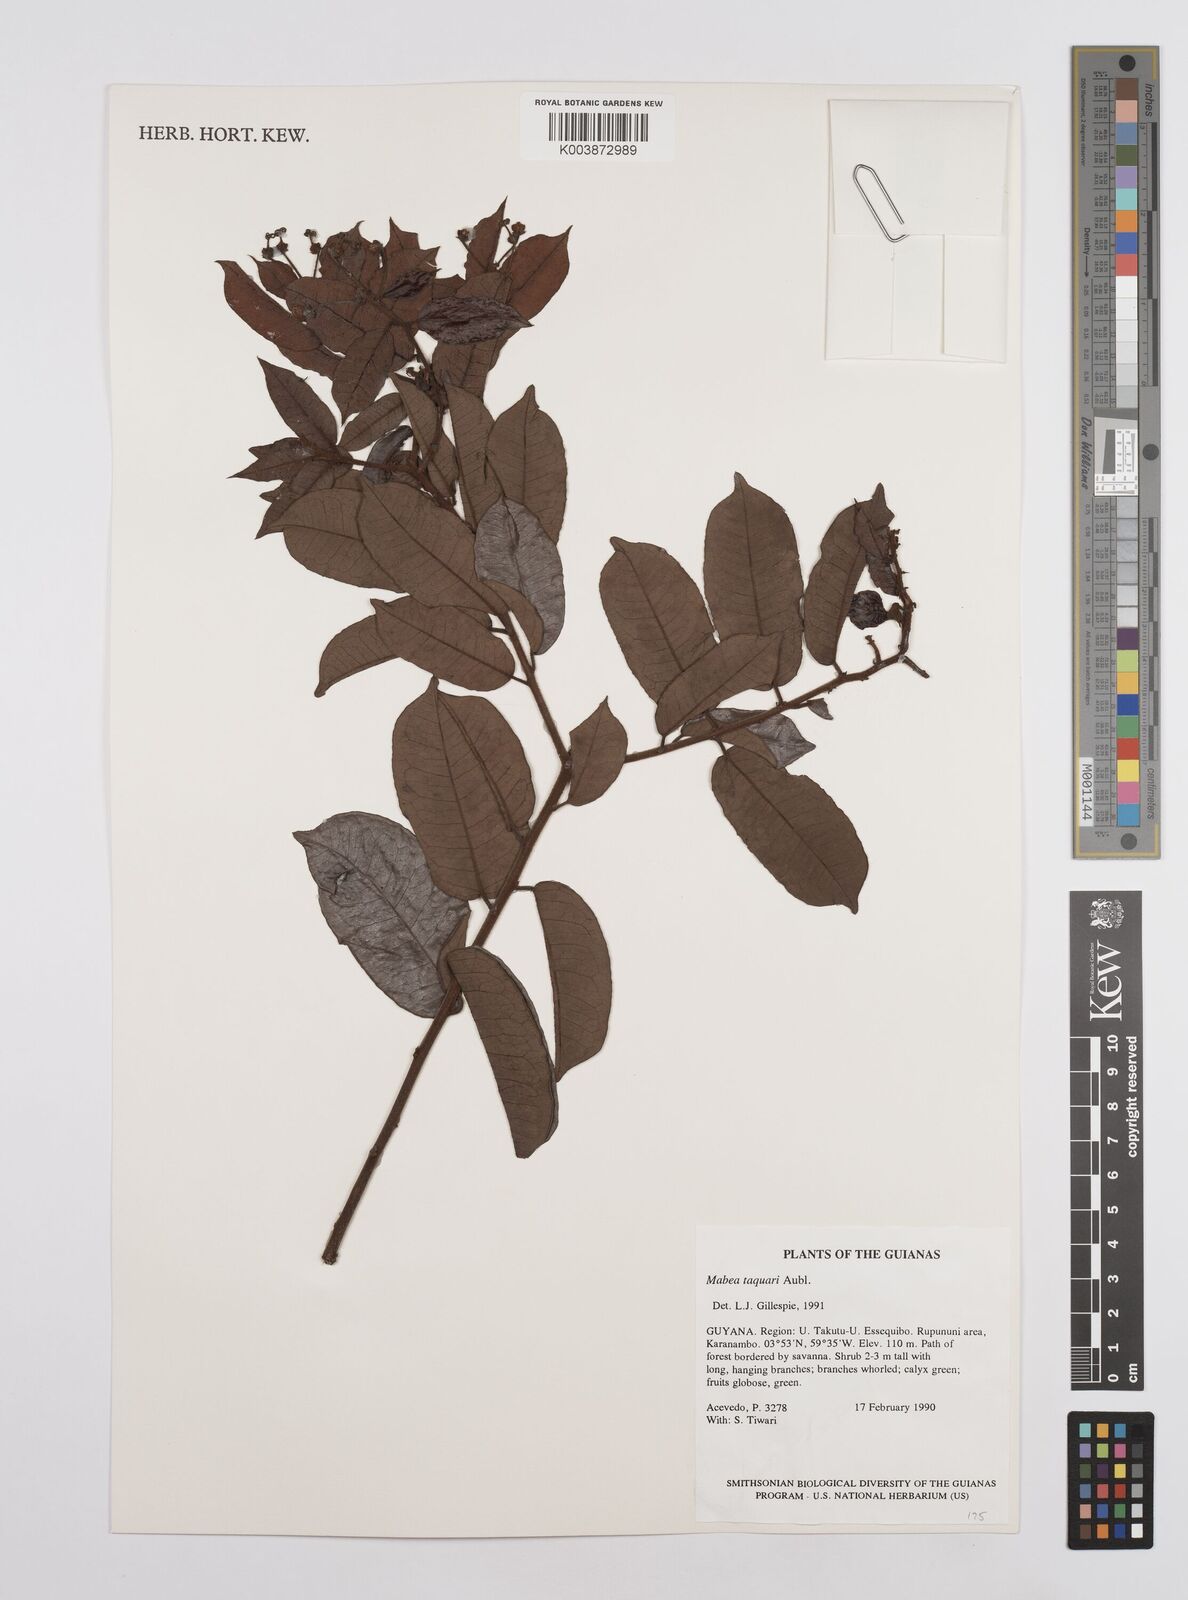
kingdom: Plantae
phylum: Tracheophyta
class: Magnoliopsida
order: Malpighiales
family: Euphorbiaceae
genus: Mabea
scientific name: Mabea taquari
